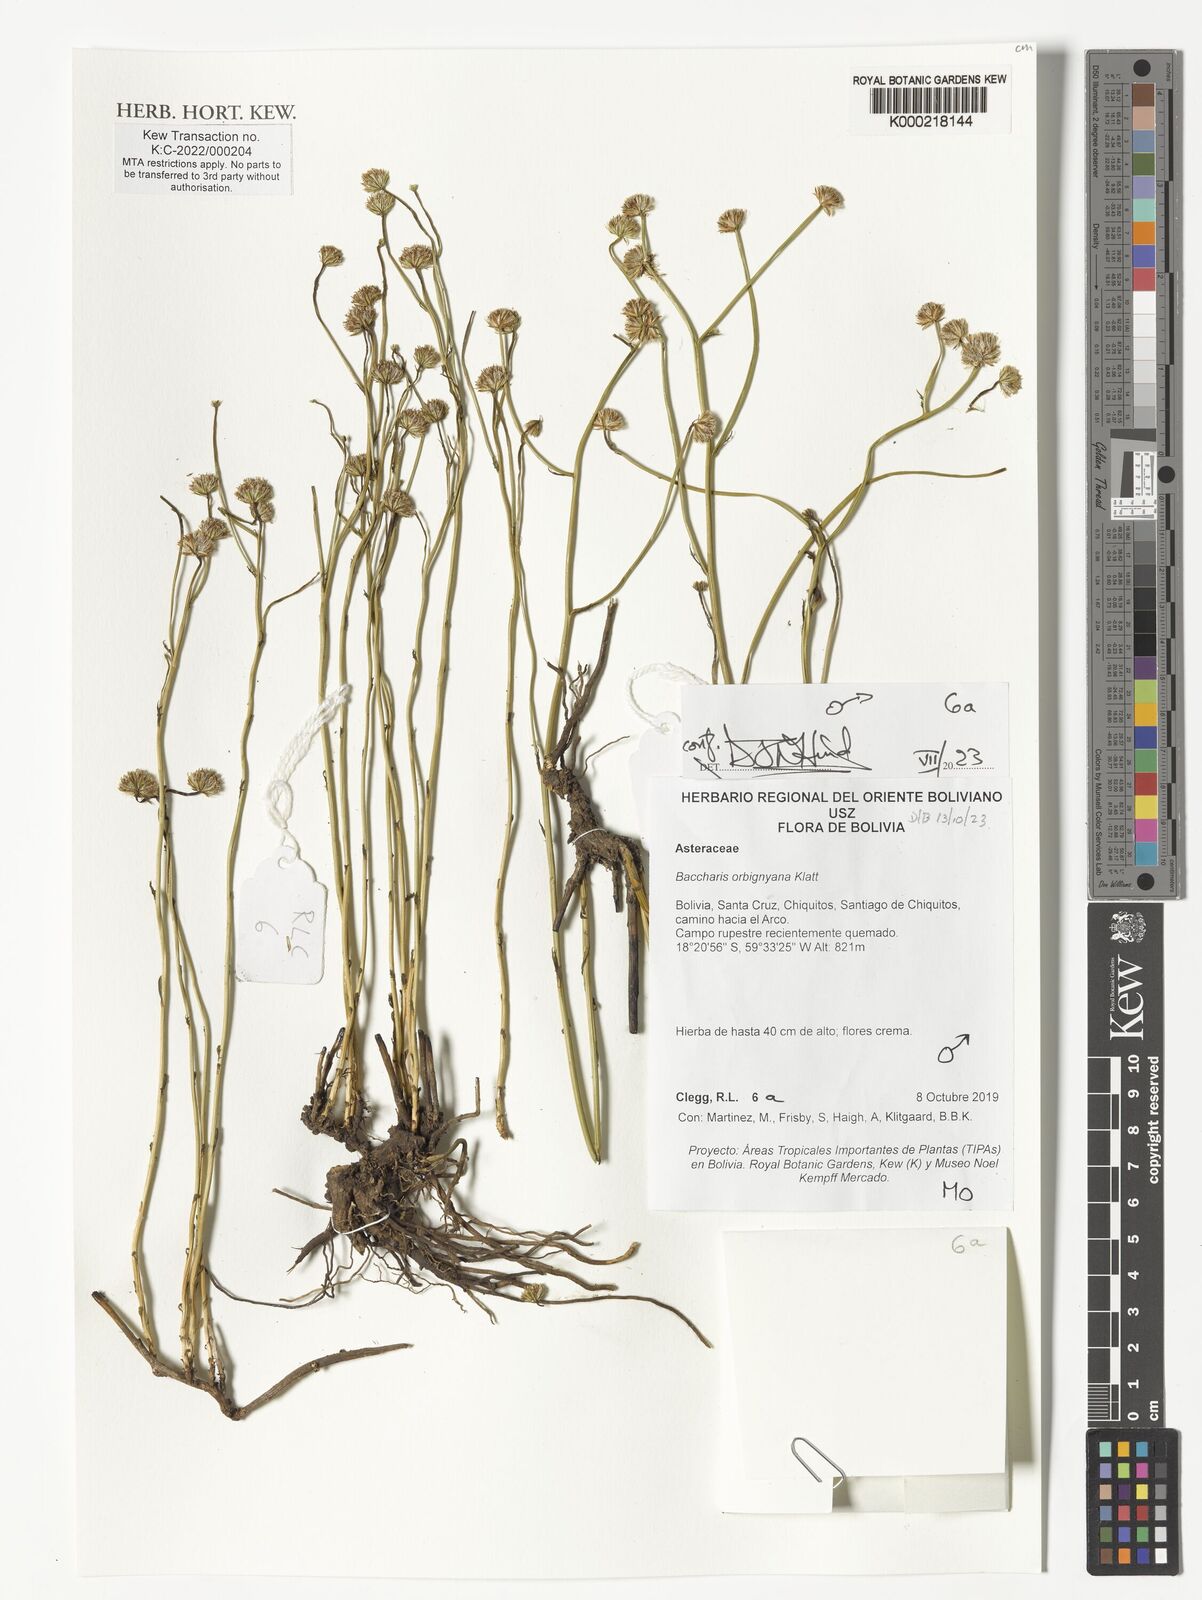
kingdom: Plantae
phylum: Tracheophyta
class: Magnoliopsida
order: Asterales
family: Asteraceae
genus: Baccharis
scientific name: Baccharis orbignyana
